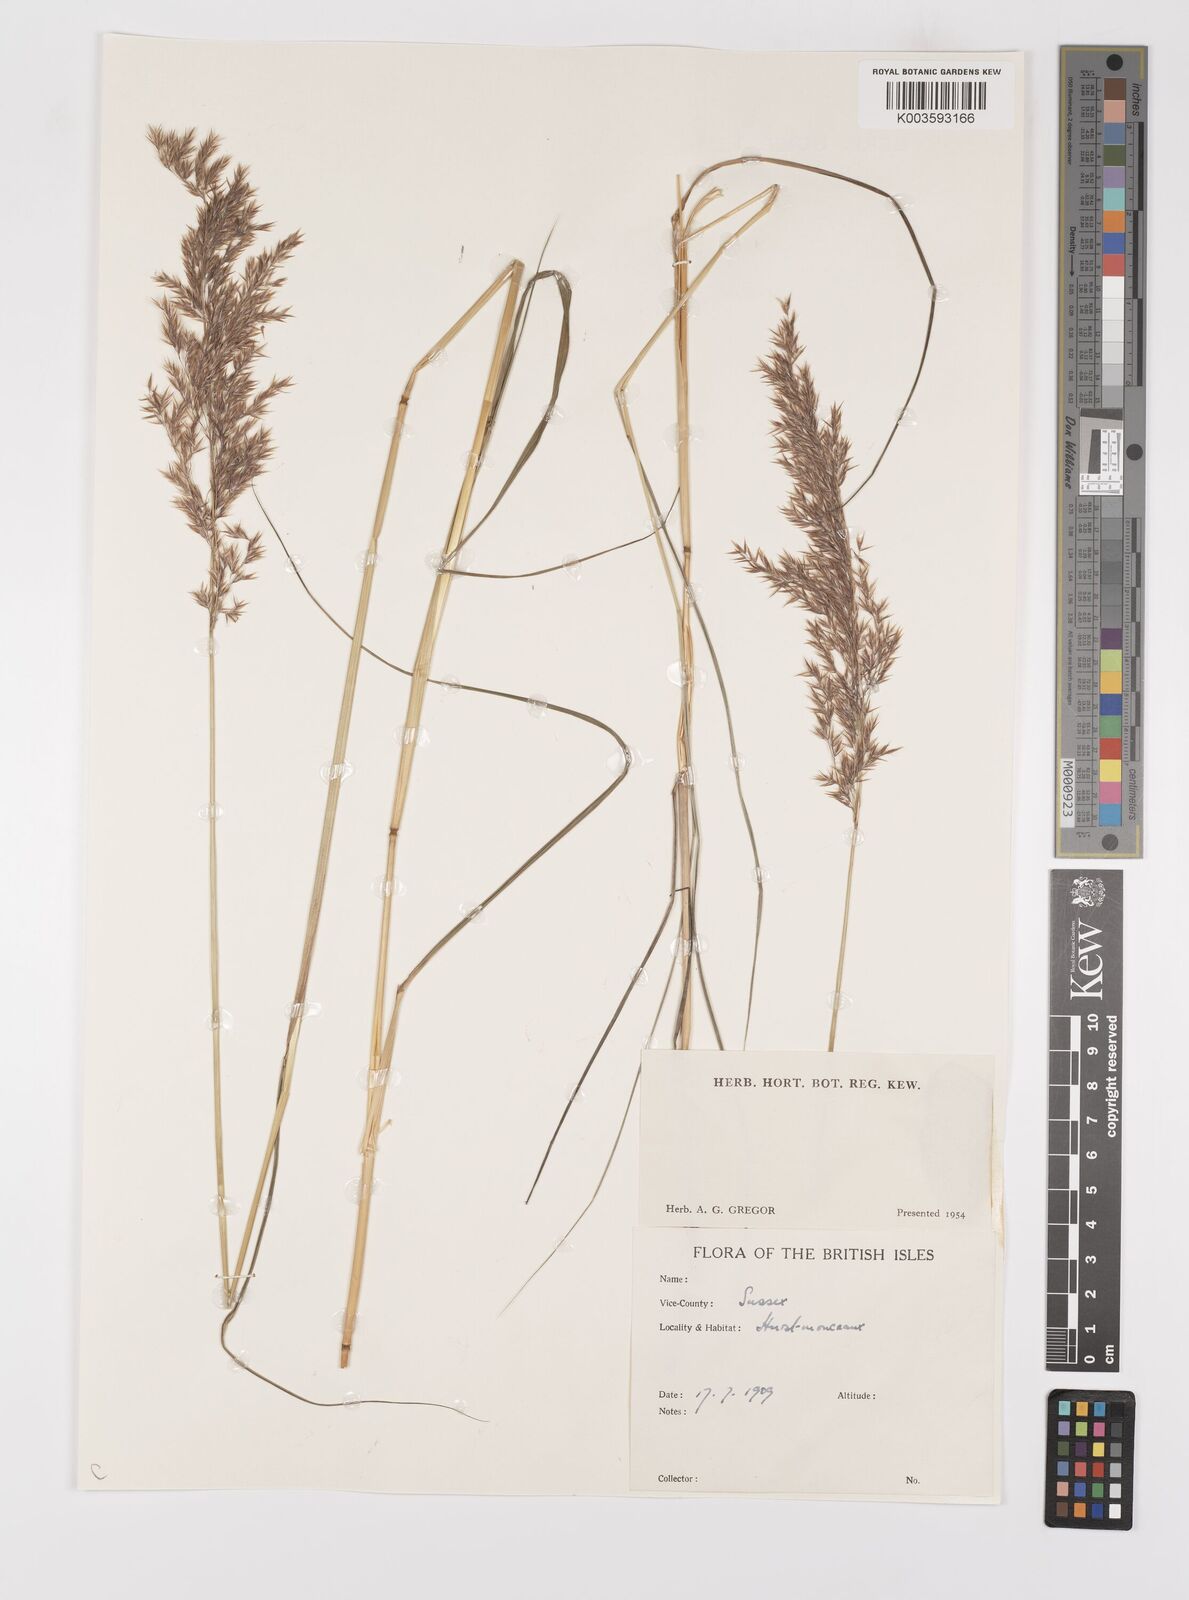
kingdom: Plantae
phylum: Tracheophyta
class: Liliopsida
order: Poales
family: Poaceae
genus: Calamagrostis
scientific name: Calamagrostis
